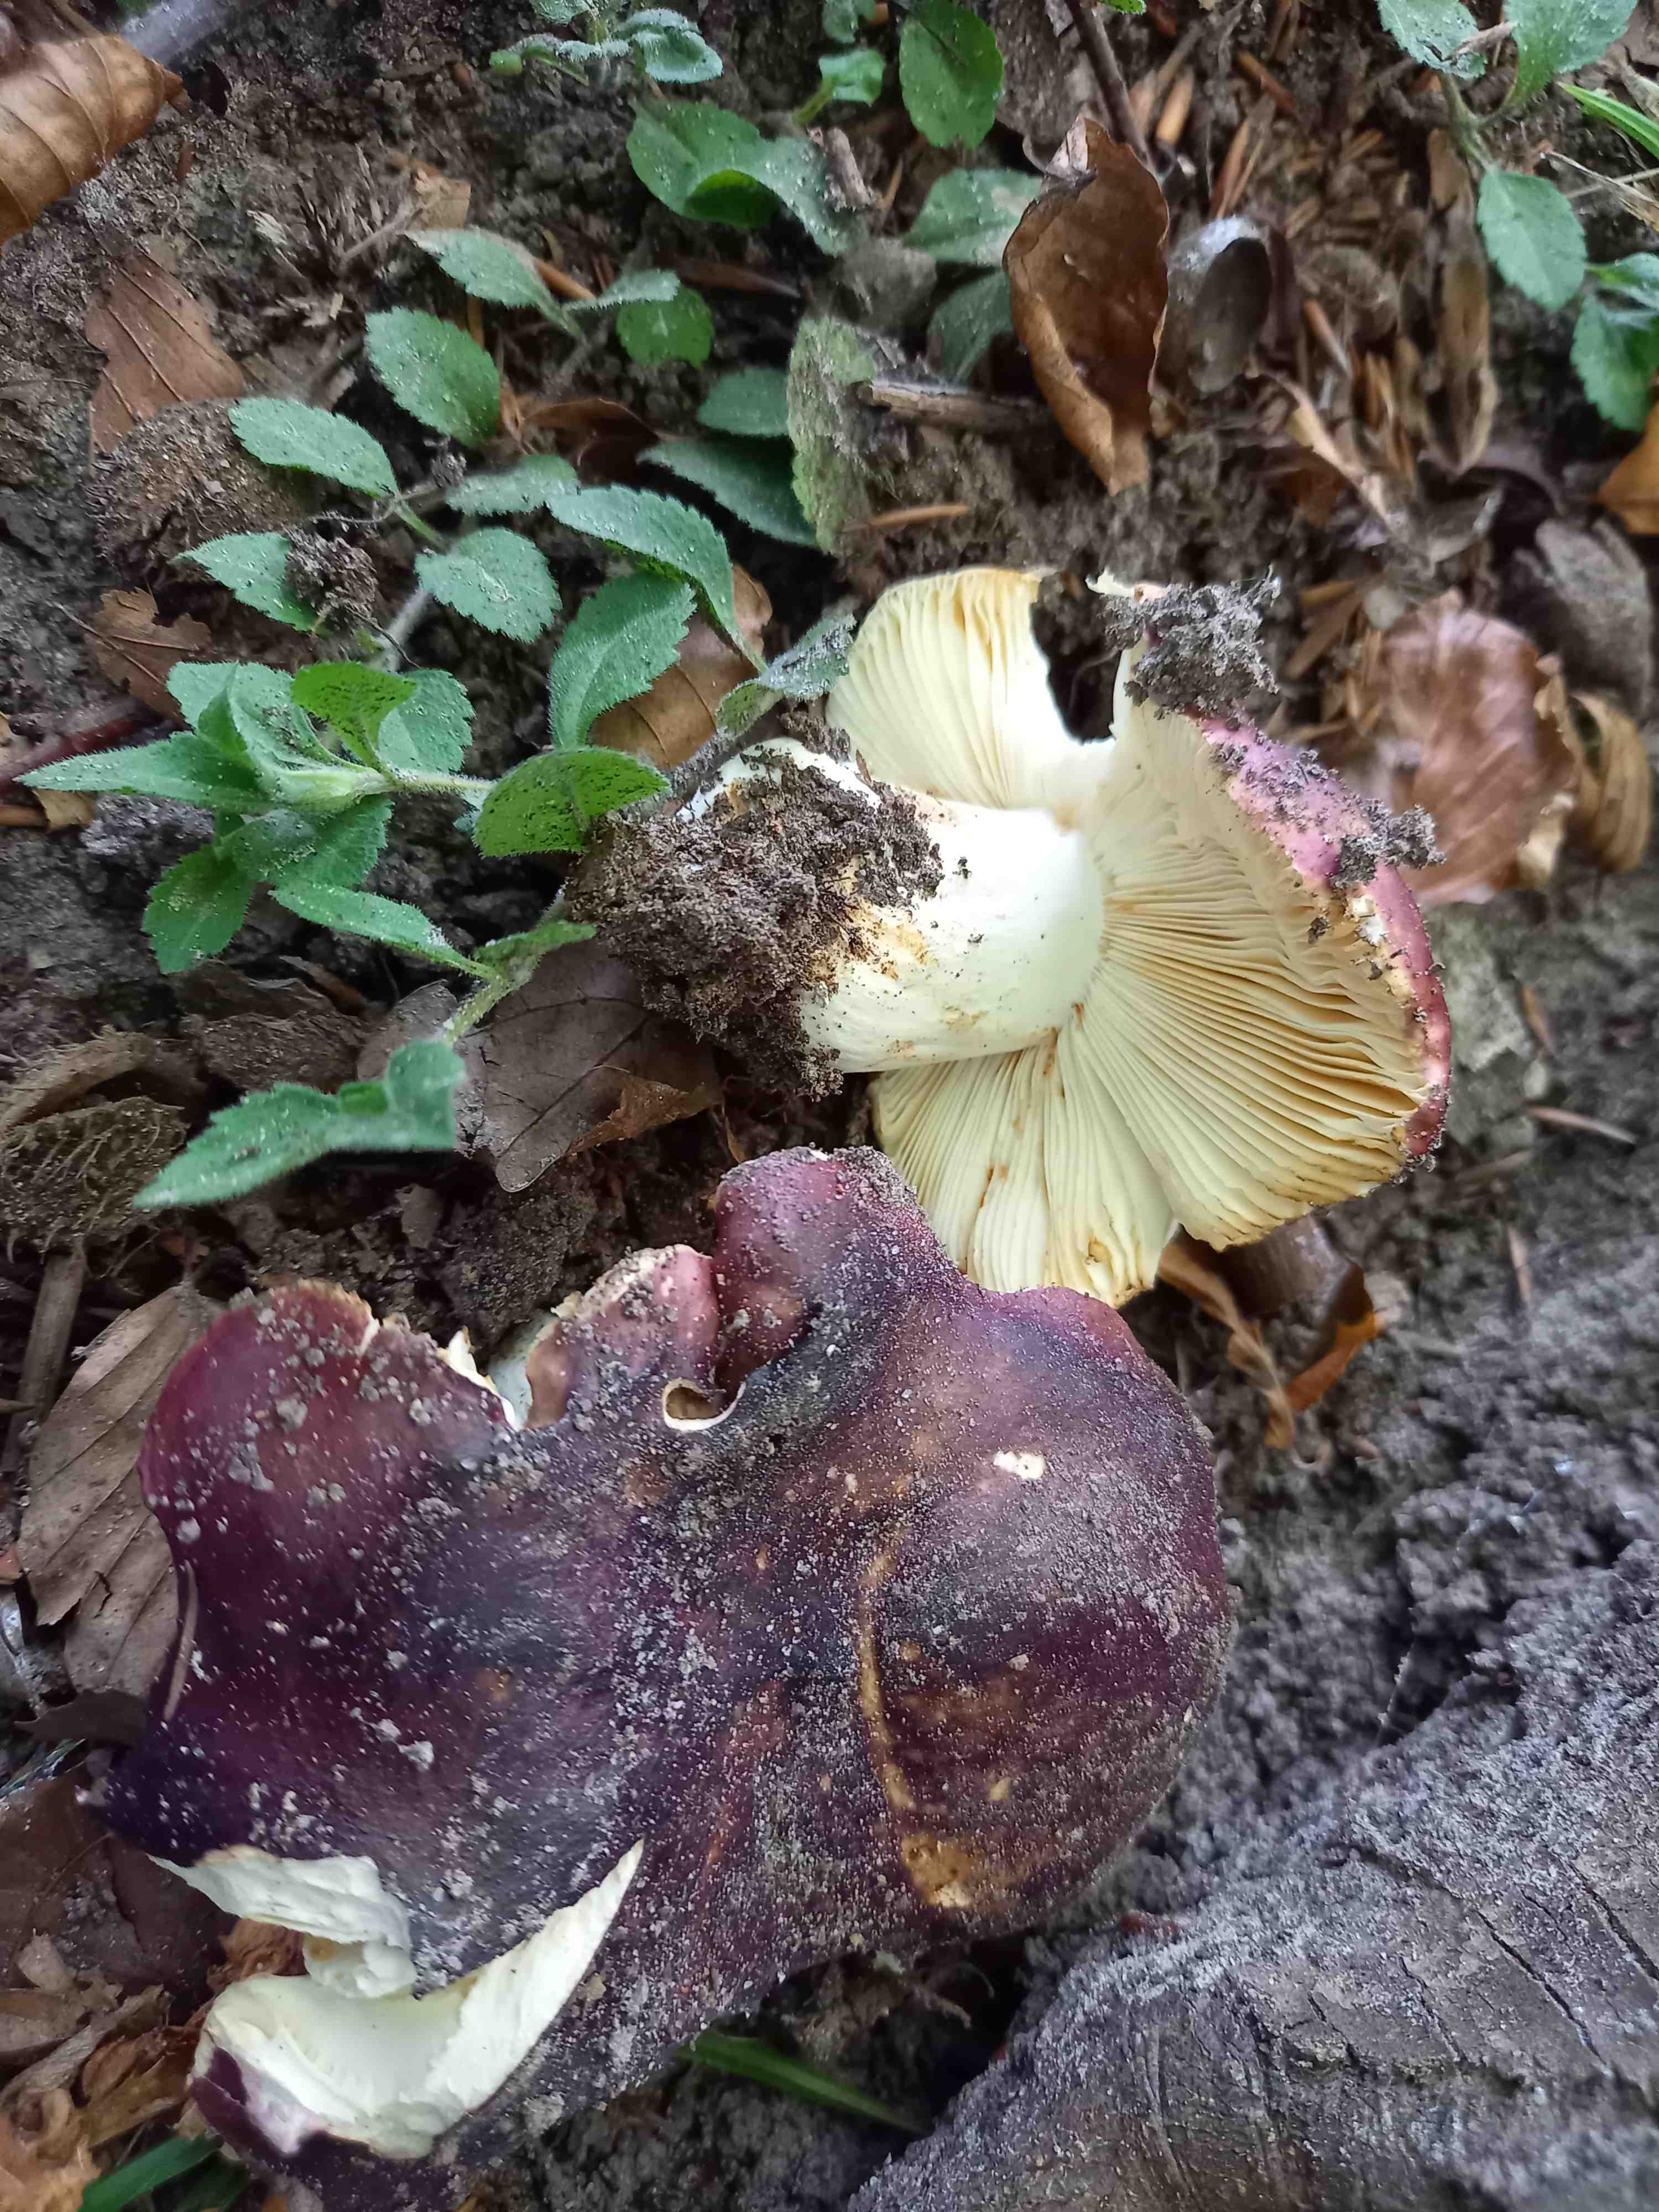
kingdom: Fungi
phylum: Basidiomycota
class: Agaricomycetes
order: Russulales
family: Russulaceae
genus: Russula
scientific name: Russula atropurpurea
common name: purpurbroget skørhat
